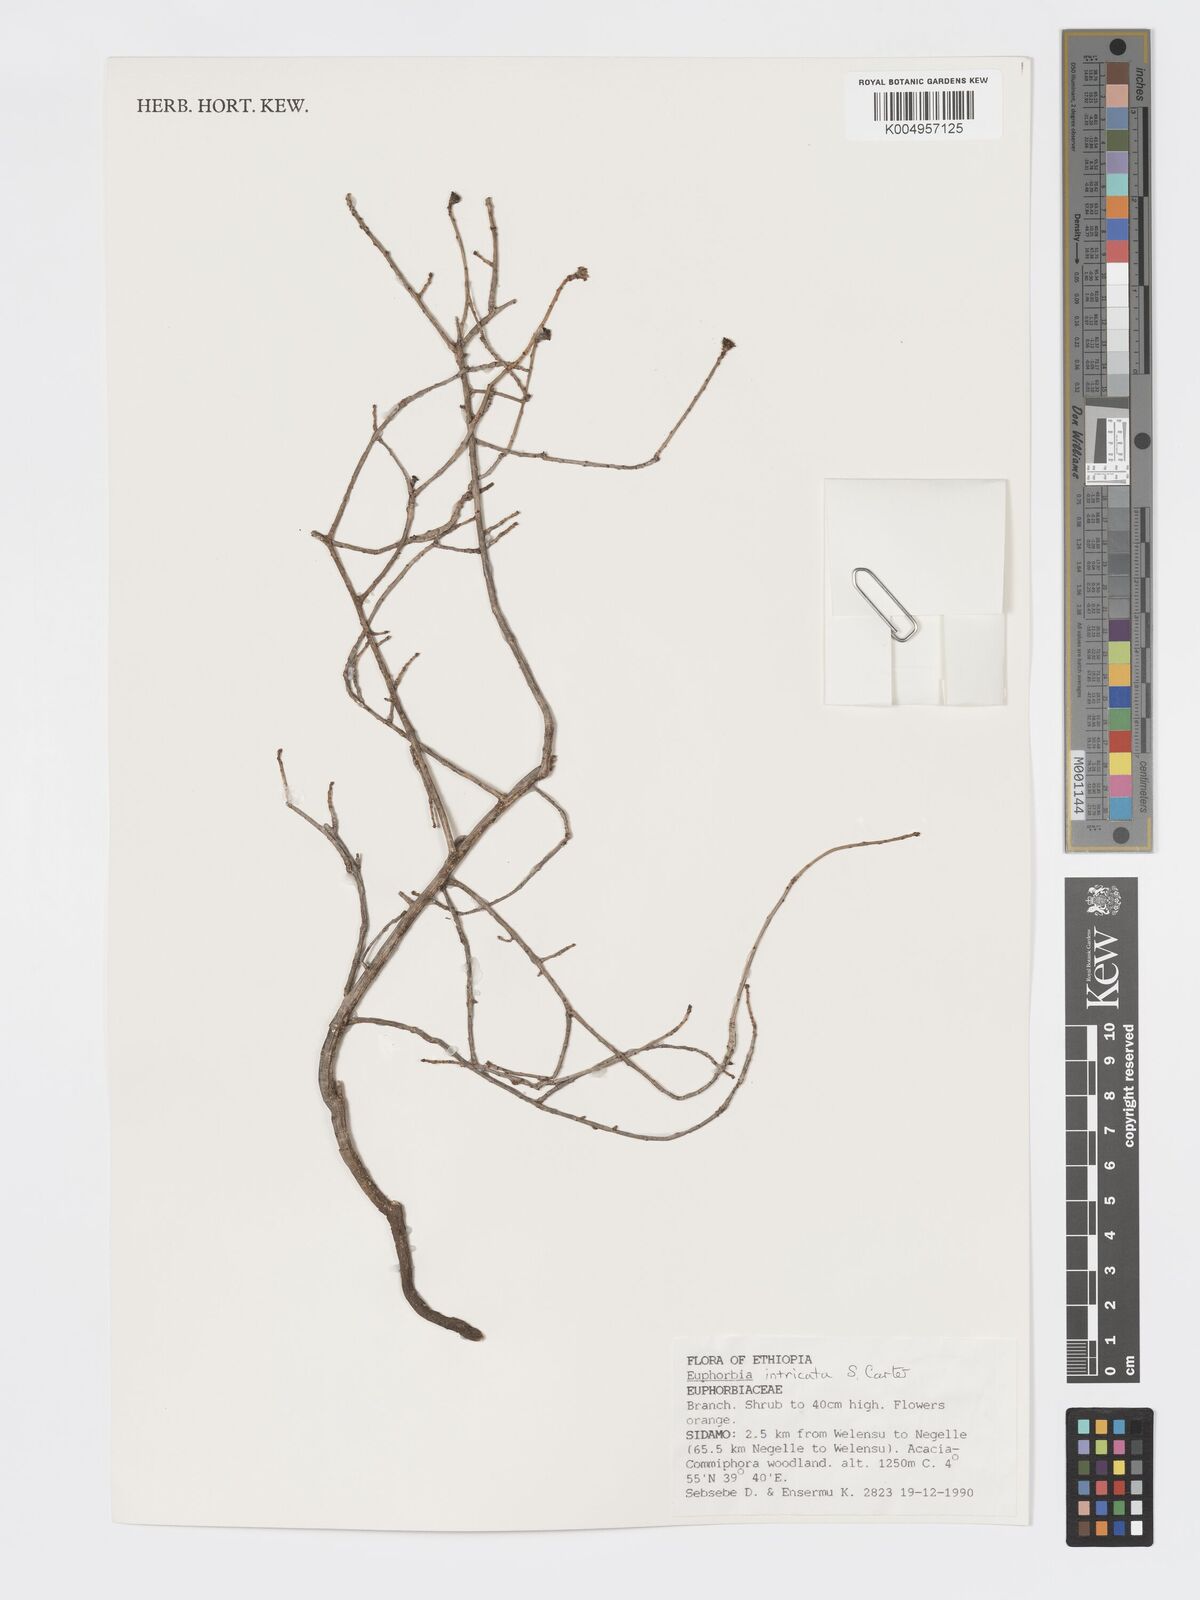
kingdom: Plantae
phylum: Tracheophyta
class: Magnoliopsida
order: Malpighiales
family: Euphorbiaceae
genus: Euphorbia
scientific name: Euphorbia intricata
